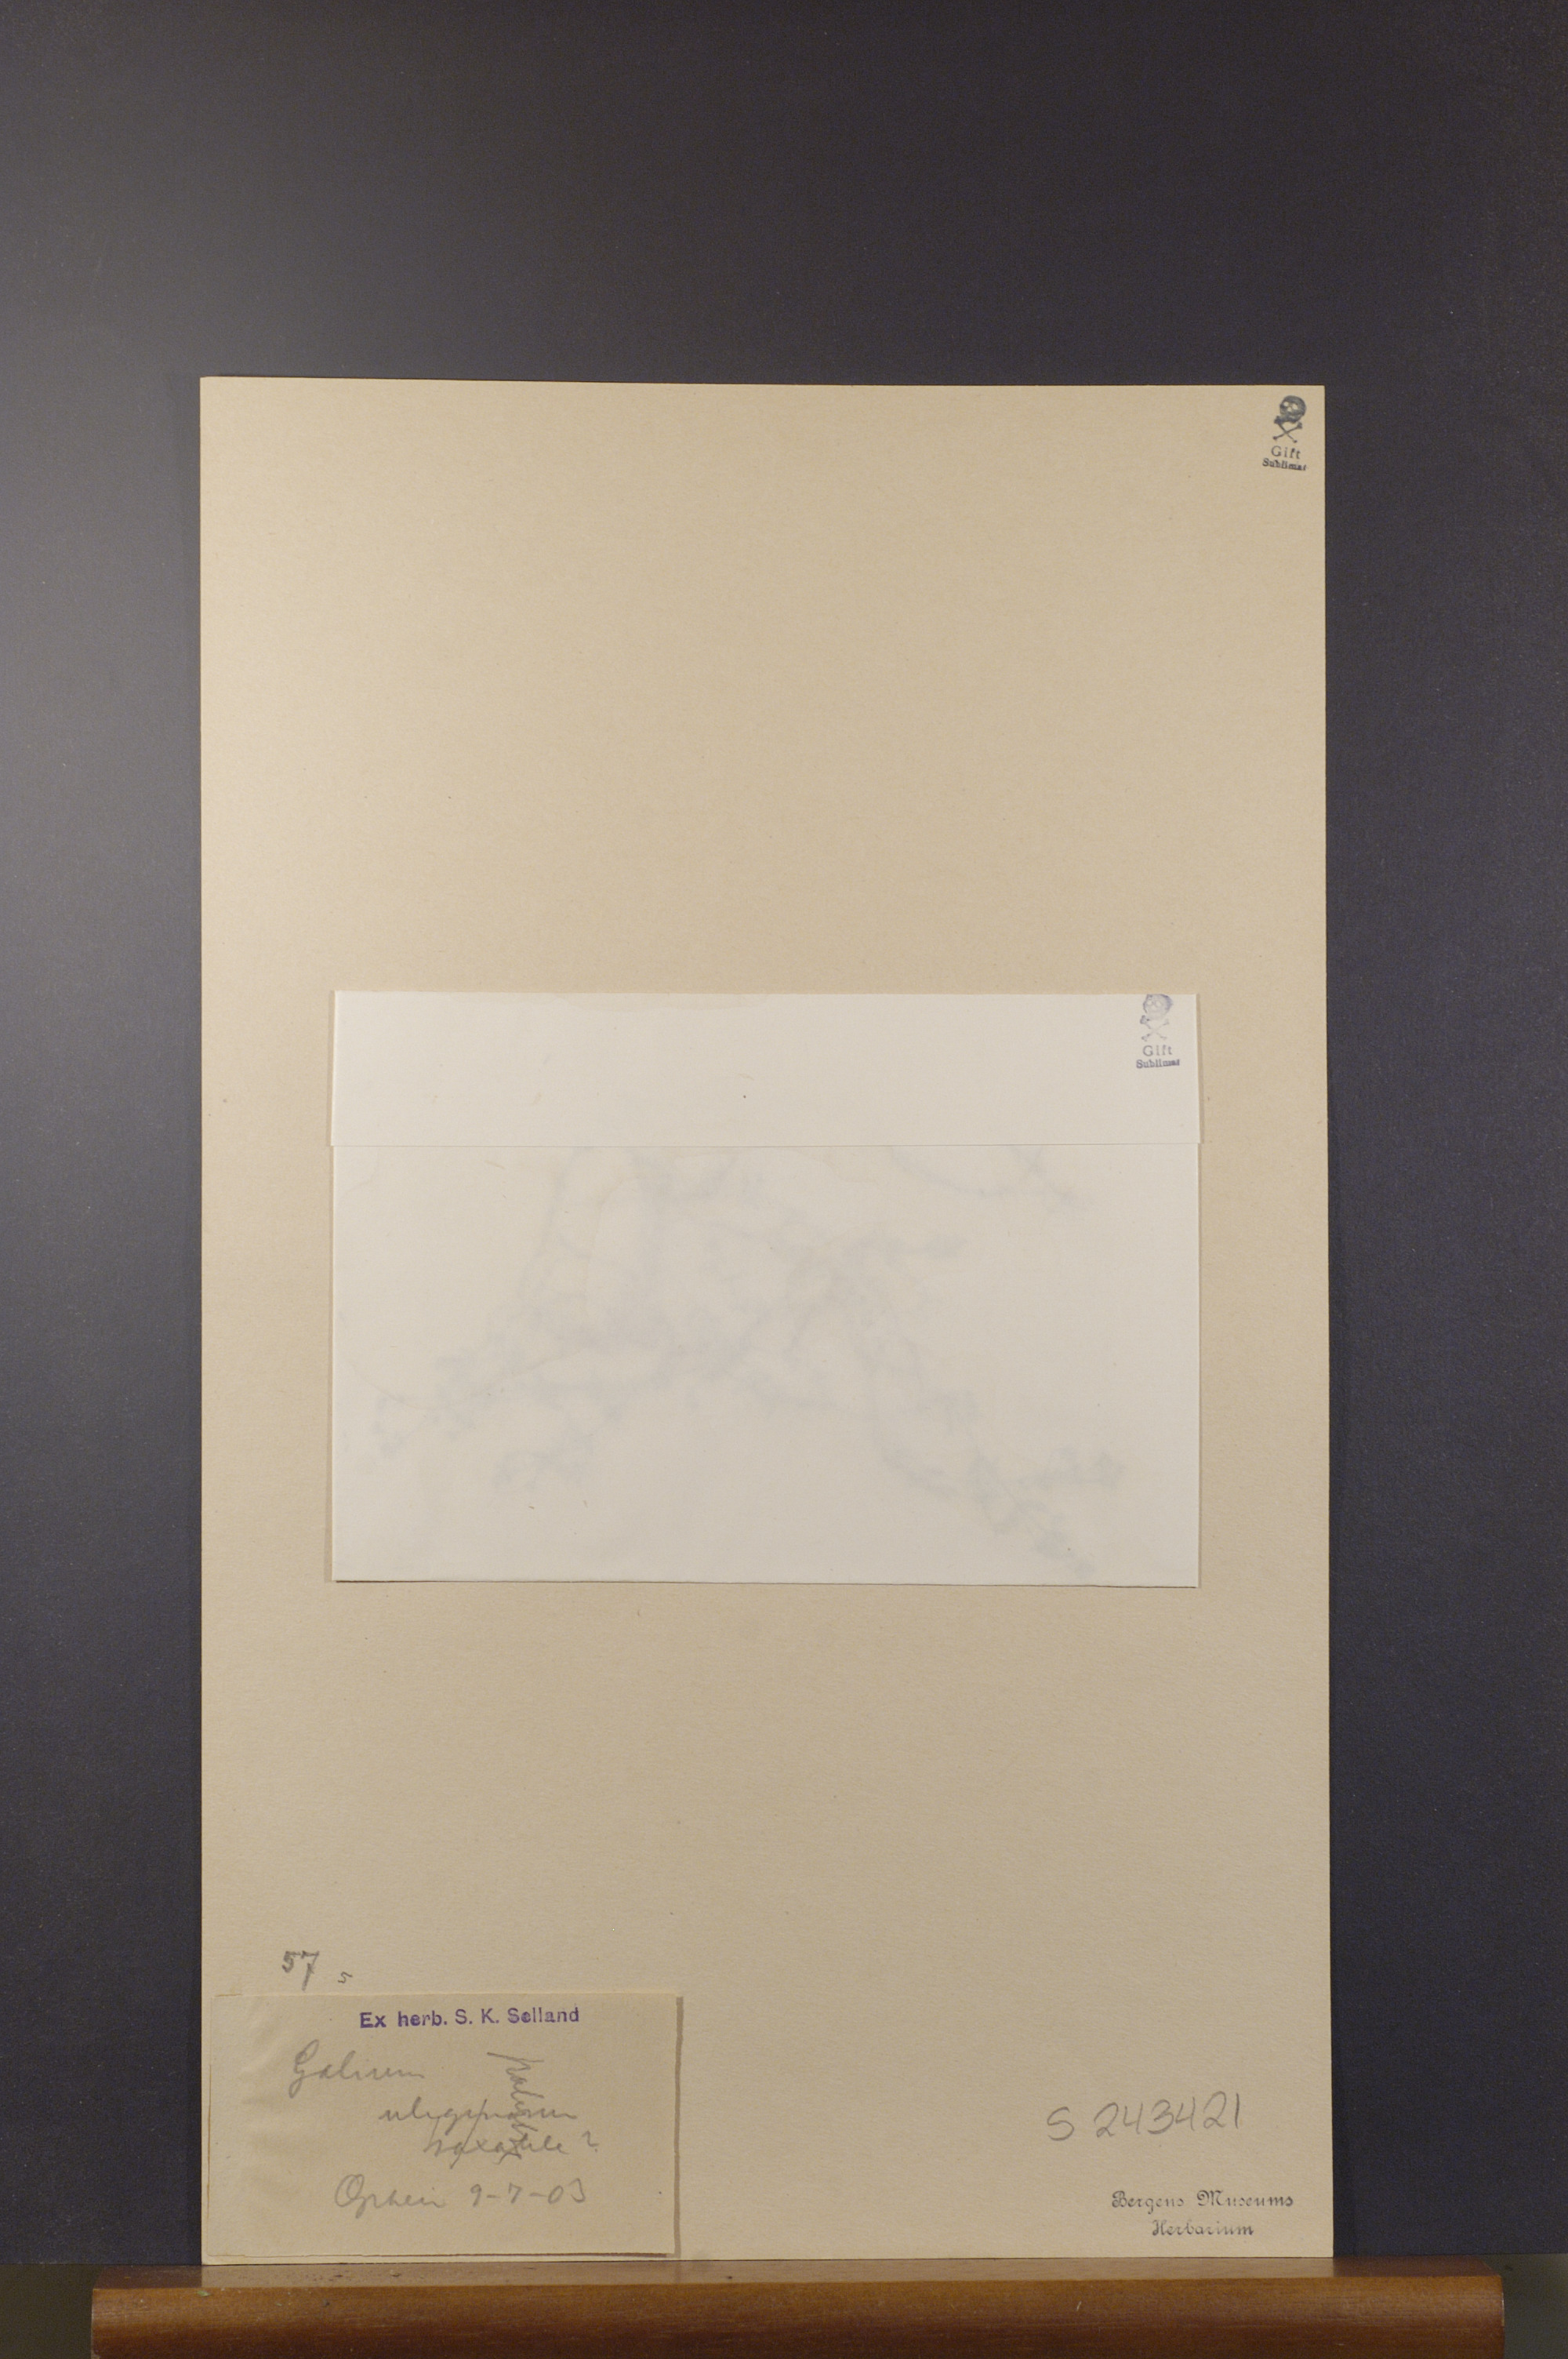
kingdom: Plantae
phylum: Tracheophyta
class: Magnoliopsida
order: Gentianales
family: Rubiaceae
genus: Galium
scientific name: Galium uliginosum
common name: Fen bedstraw
